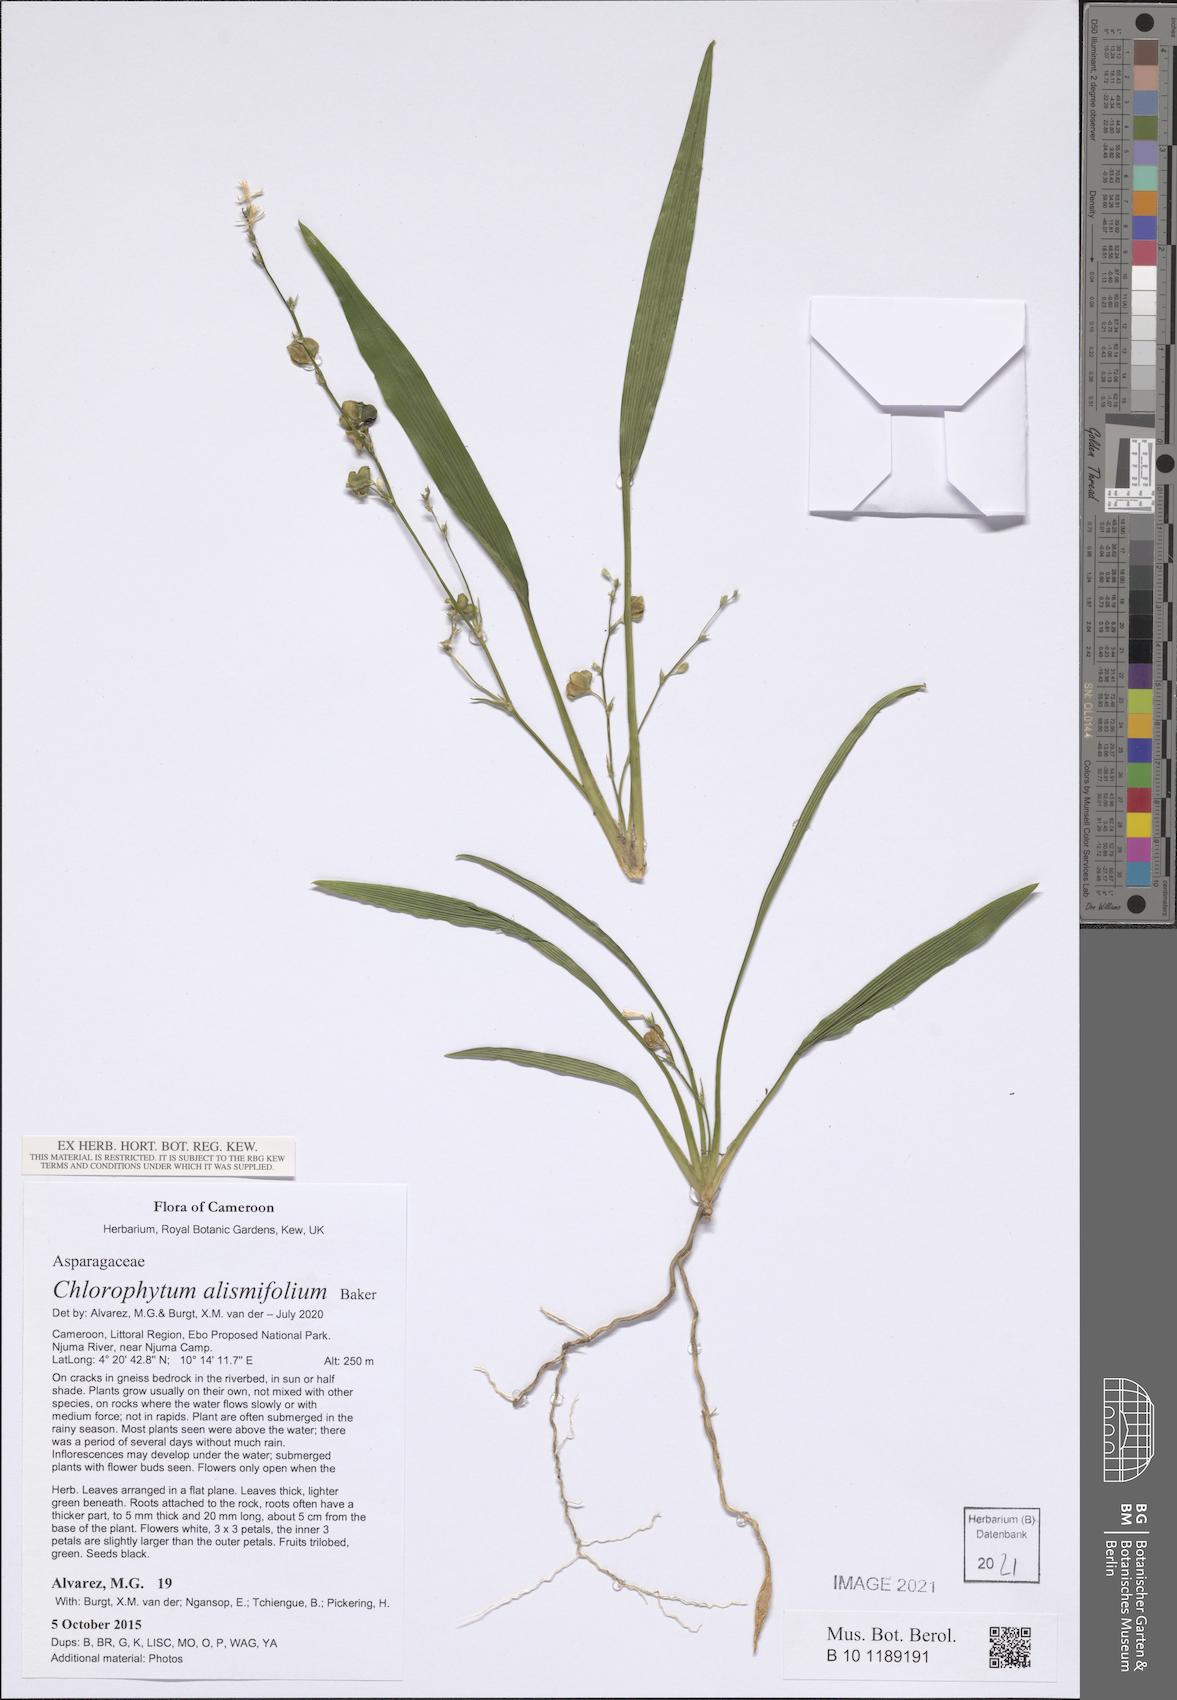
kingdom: Plantae
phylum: Tracheophyta
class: Liliopsida
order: Asparagales
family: Asparagaceae
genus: Chlorophytum
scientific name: Chlorophytum alismifolium
